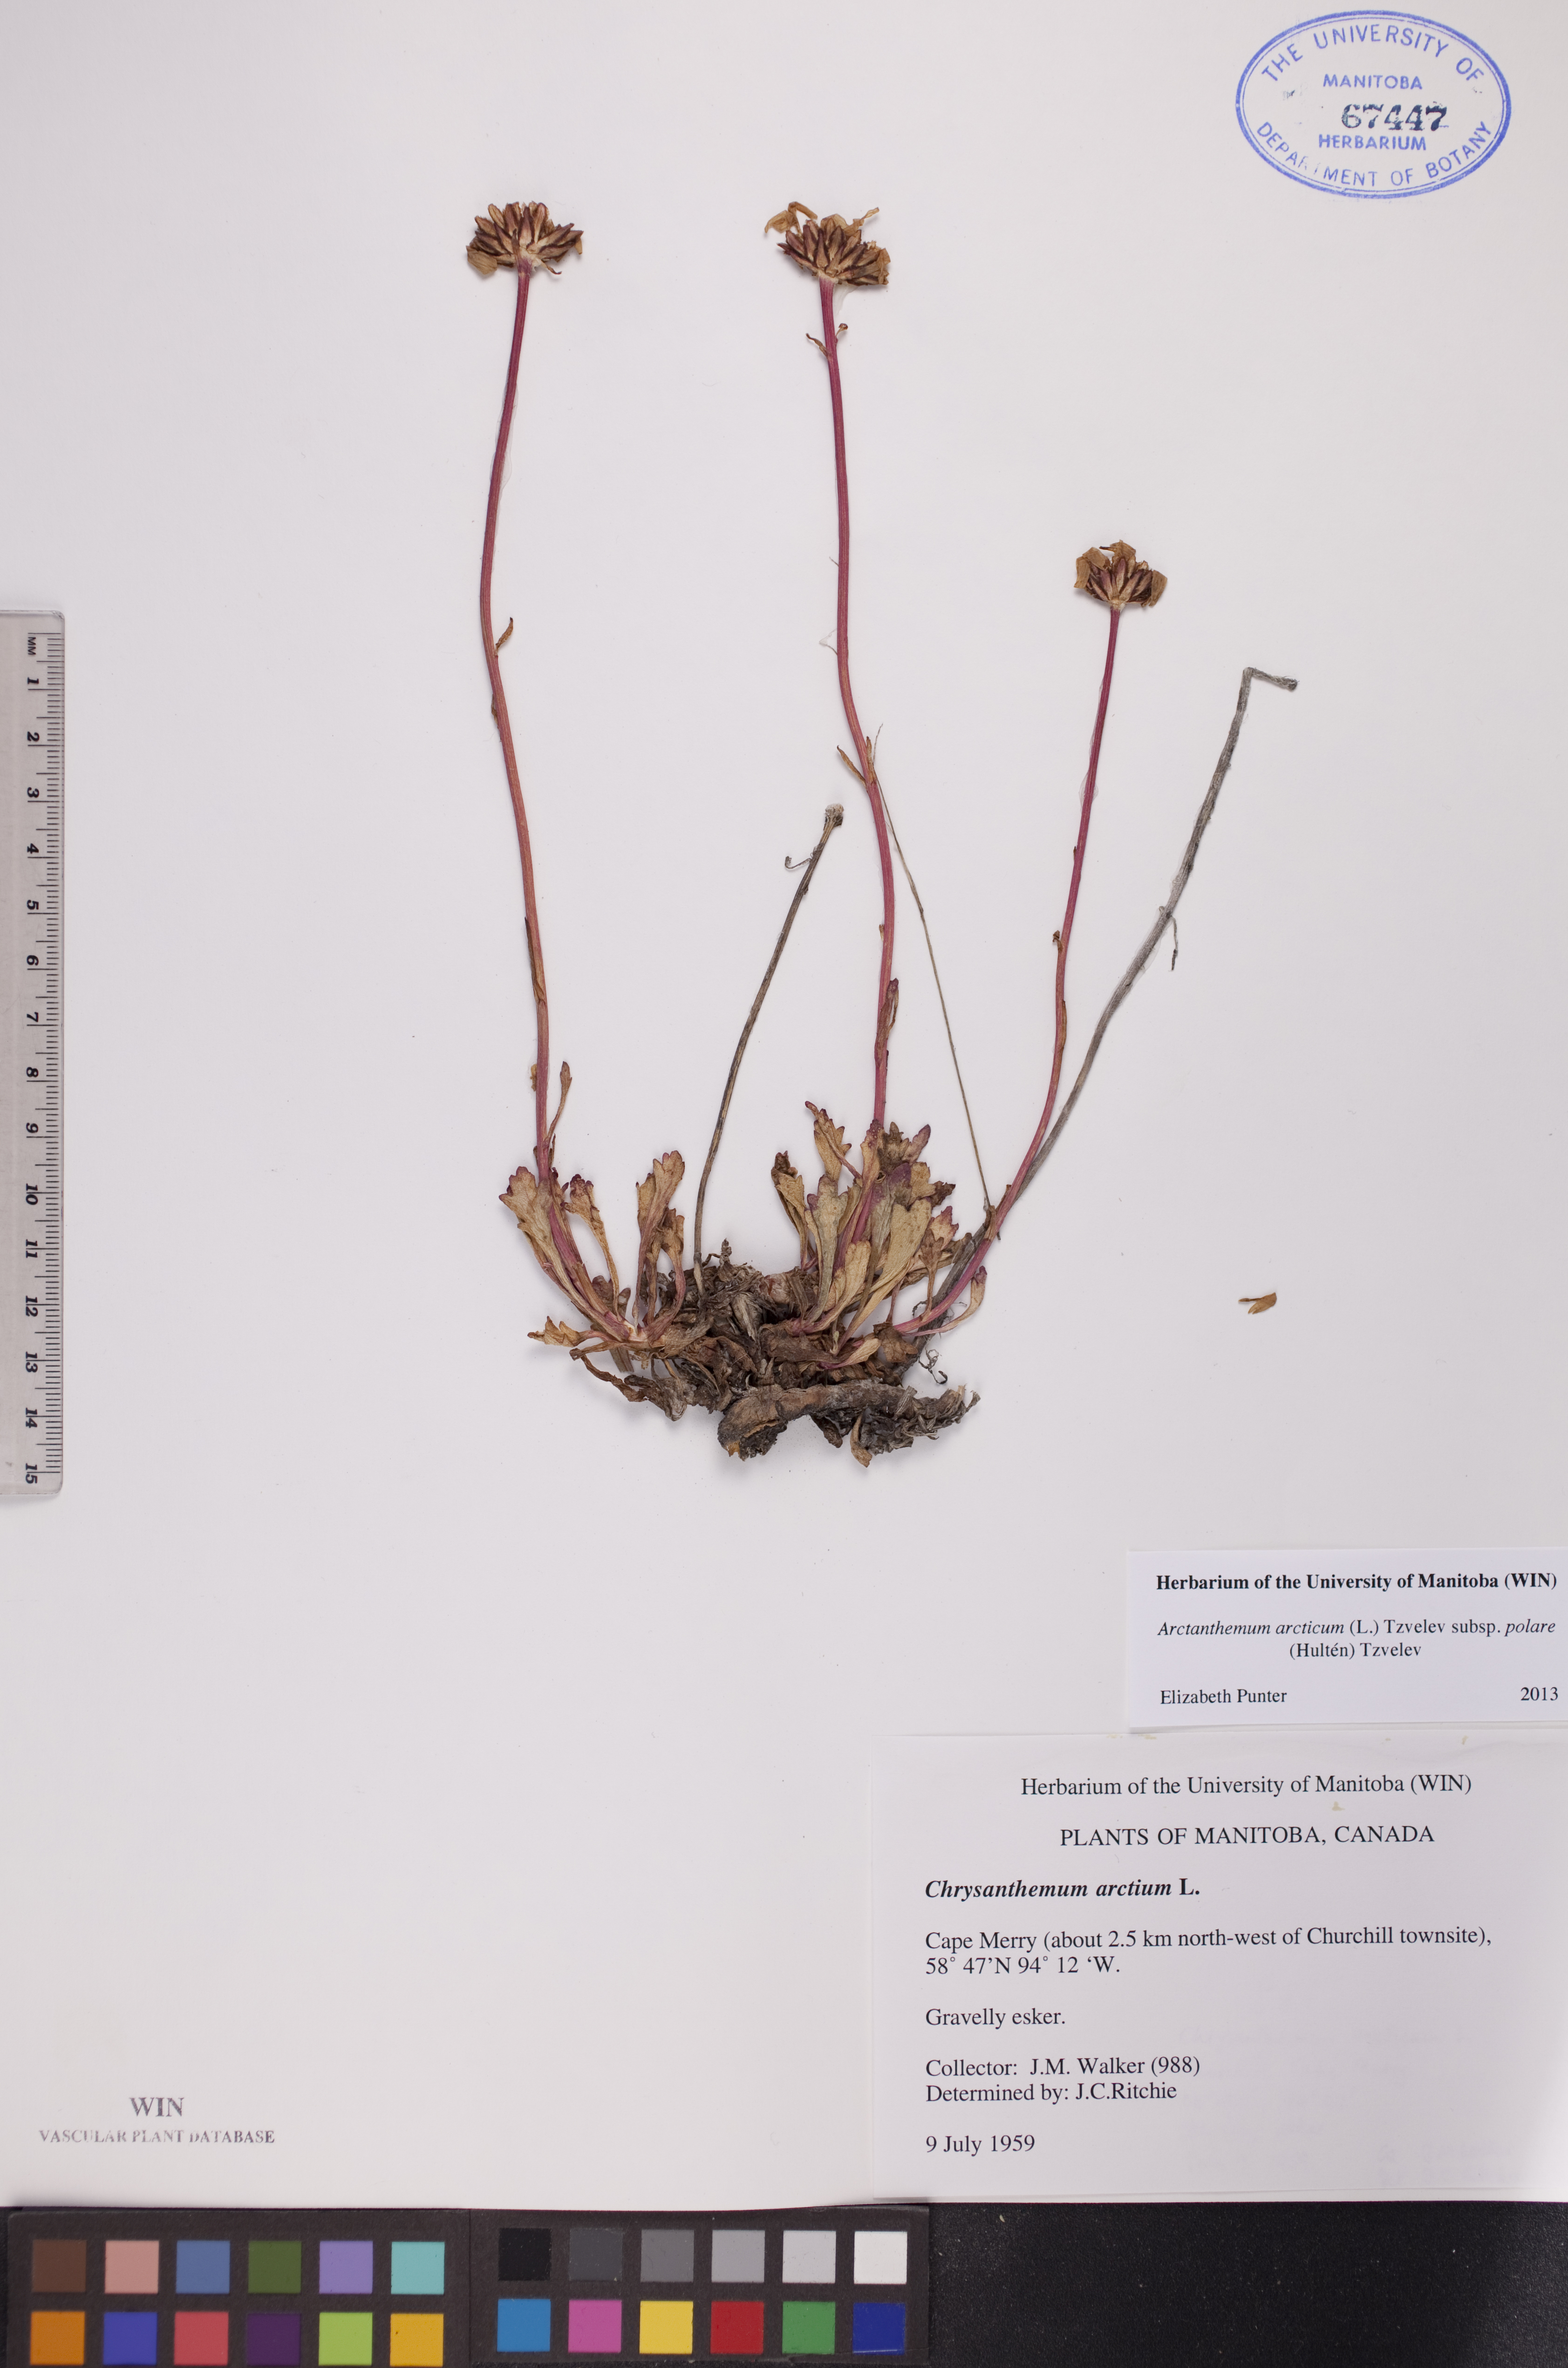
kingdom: Plantae
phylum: Tracheophyta
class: Magnoliopsida
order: Asterales
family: Asteraceae
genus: Arctanthemum
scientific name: Arctanthemum arcticum
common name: Arctic daisy
